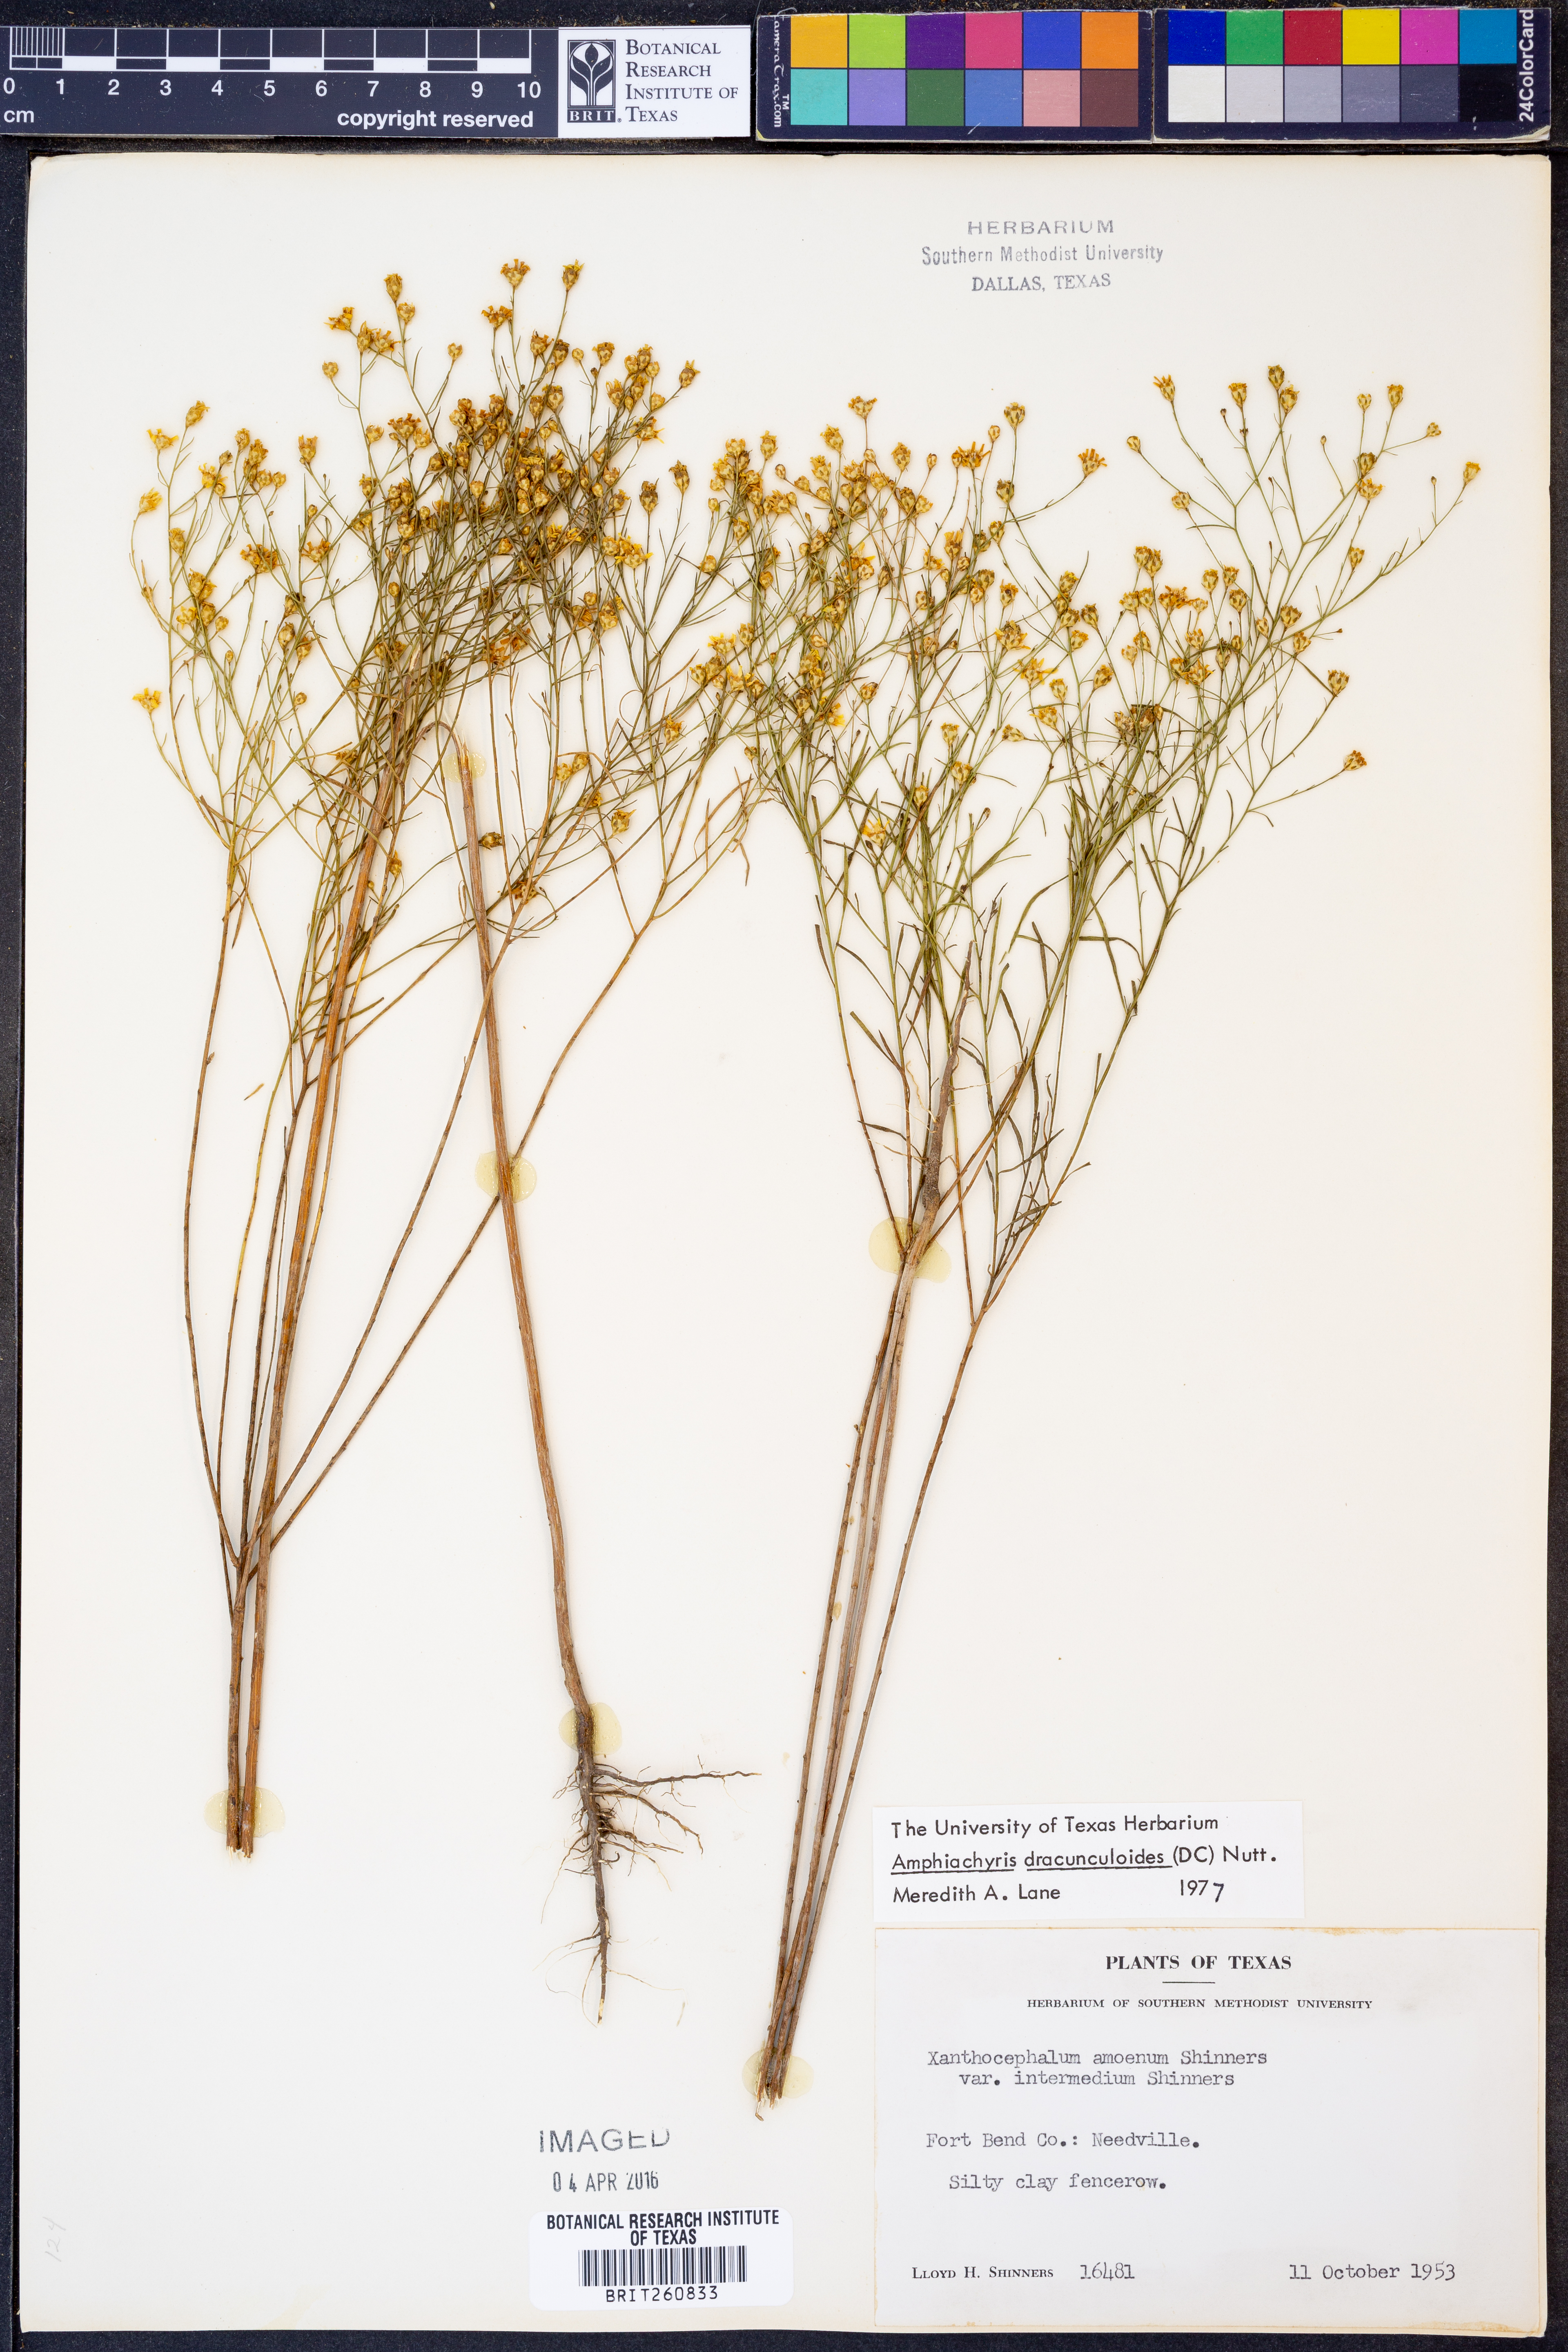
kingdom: Plantae
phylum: Tracheophyta
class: Magnoliopsida
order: Asterales
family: Asteraceae
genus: Amphiachyris
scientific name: Amphiachyris dracunculoides
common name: Broomweed
